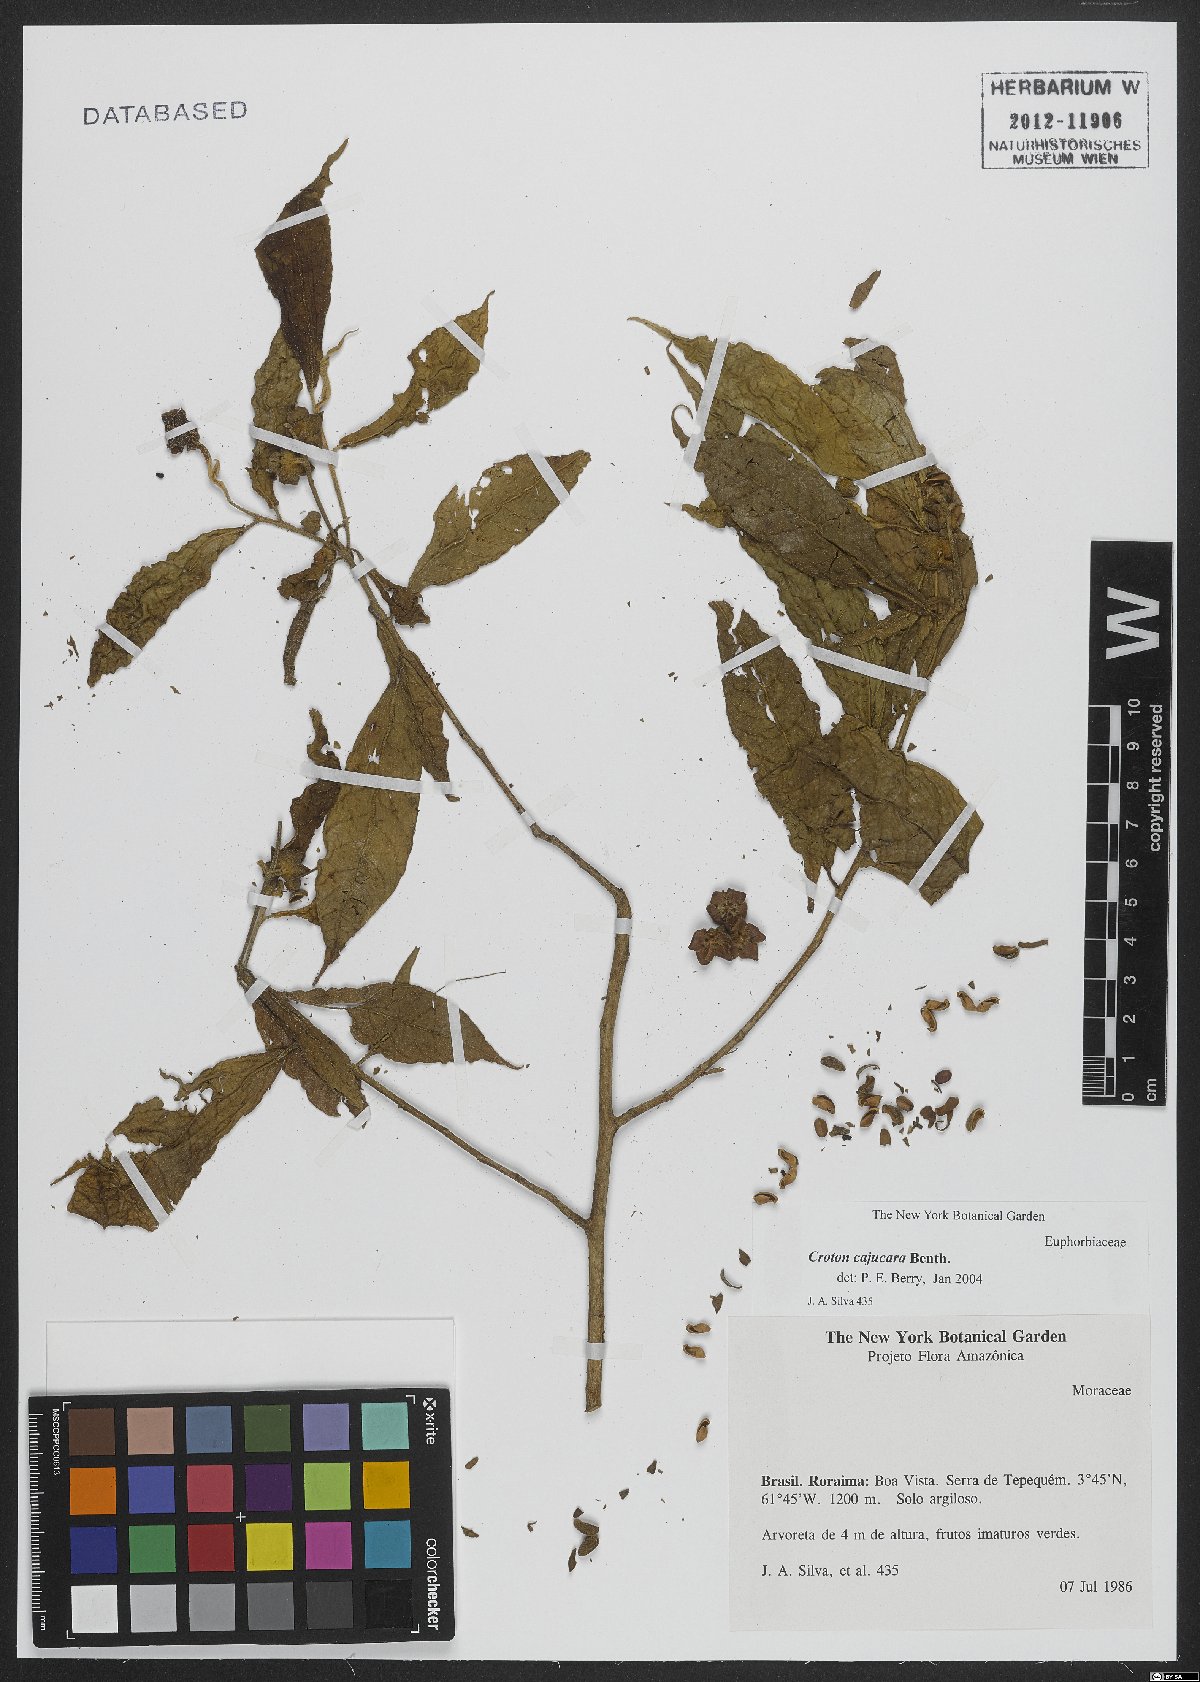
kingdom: Plantae
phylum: Tracheophyta
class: Magnoliopsida
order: Malpighiales
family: Euphorbiaceae
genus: Croton
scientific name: Croton cajucara
